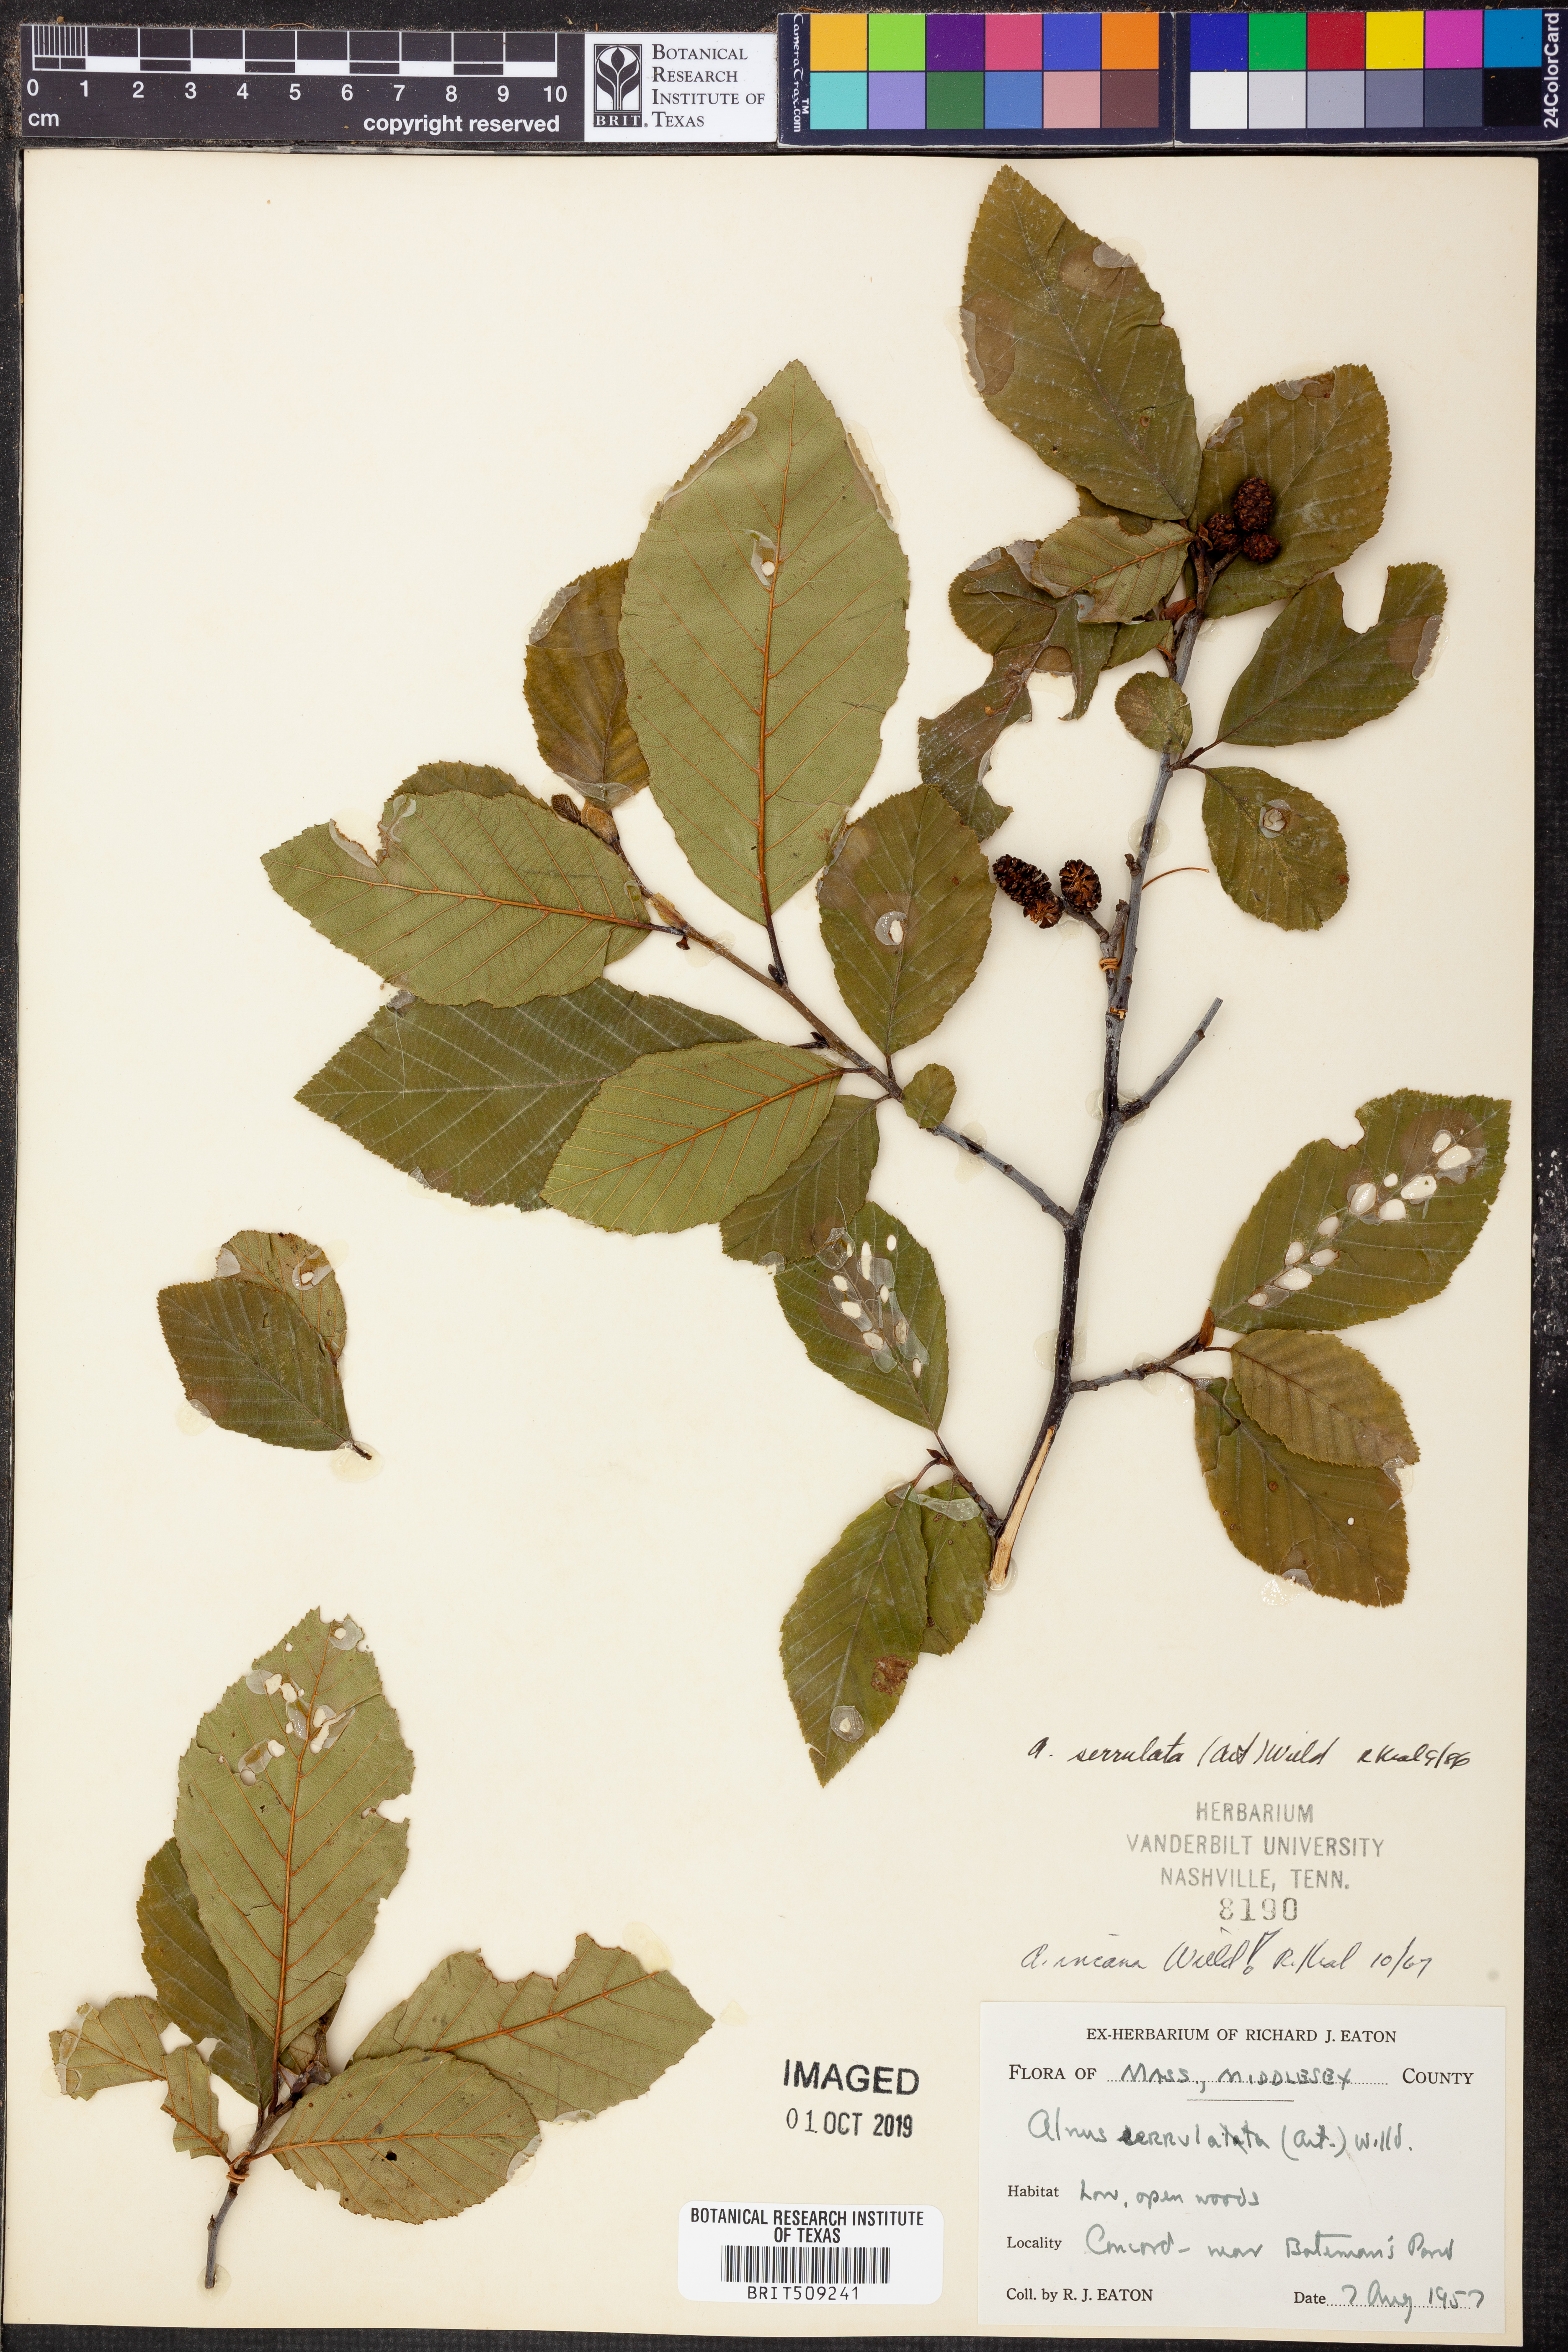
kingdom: Plantae
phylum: Tracheophyta
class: Magnoliopsida
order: Fagales
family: Betulaceae
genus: Alnus
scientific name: Alnus serrulata
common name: Hazel alder
